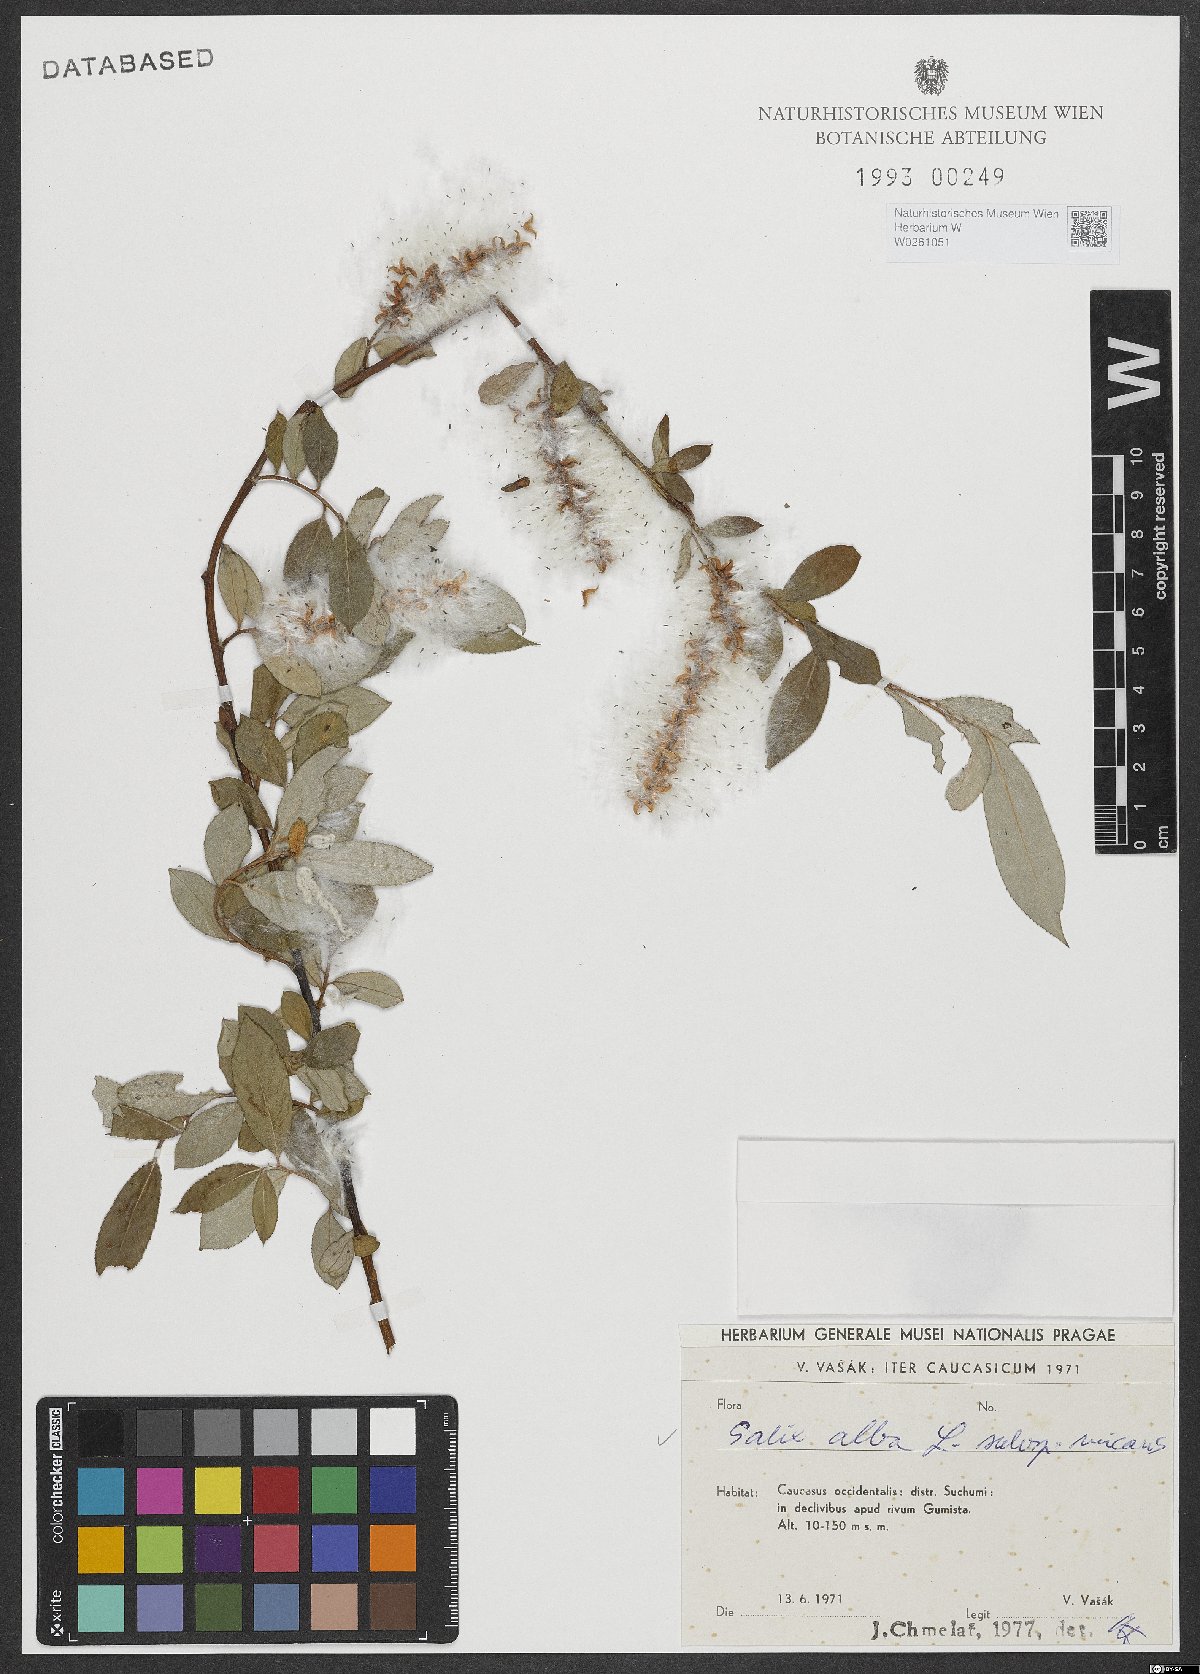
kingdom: Plantae
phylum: Tracheophyta
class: Magnoliopsida
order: Malpighiales
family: Salicaceae
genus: Salix
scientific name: Salix alba
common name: White willow
